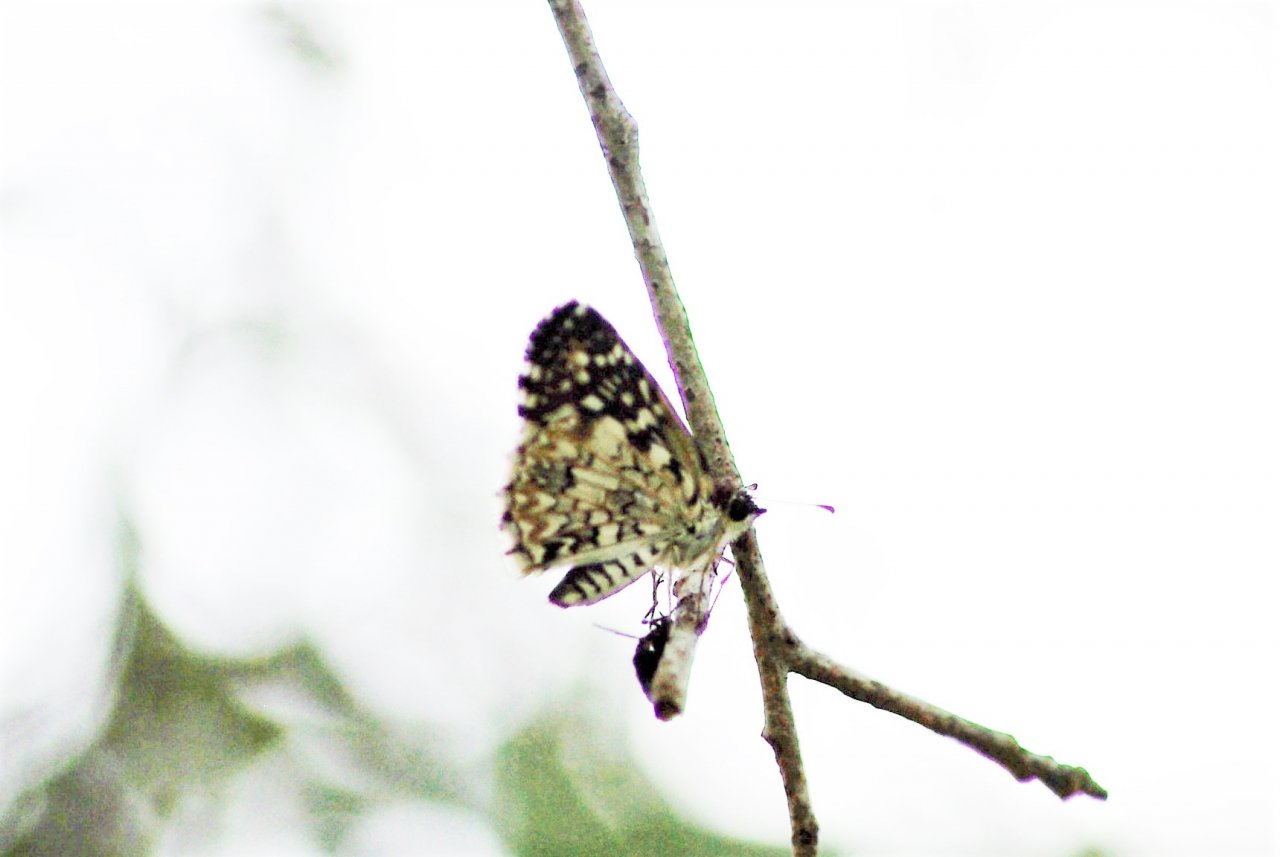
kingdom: Animalia
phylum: Arthropoda
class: Insecta
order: Lepidoptera
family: Hesperiidae
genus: Pyrgus
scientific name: Pyrgus oileus
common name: Tropical Checkered-Skipper
